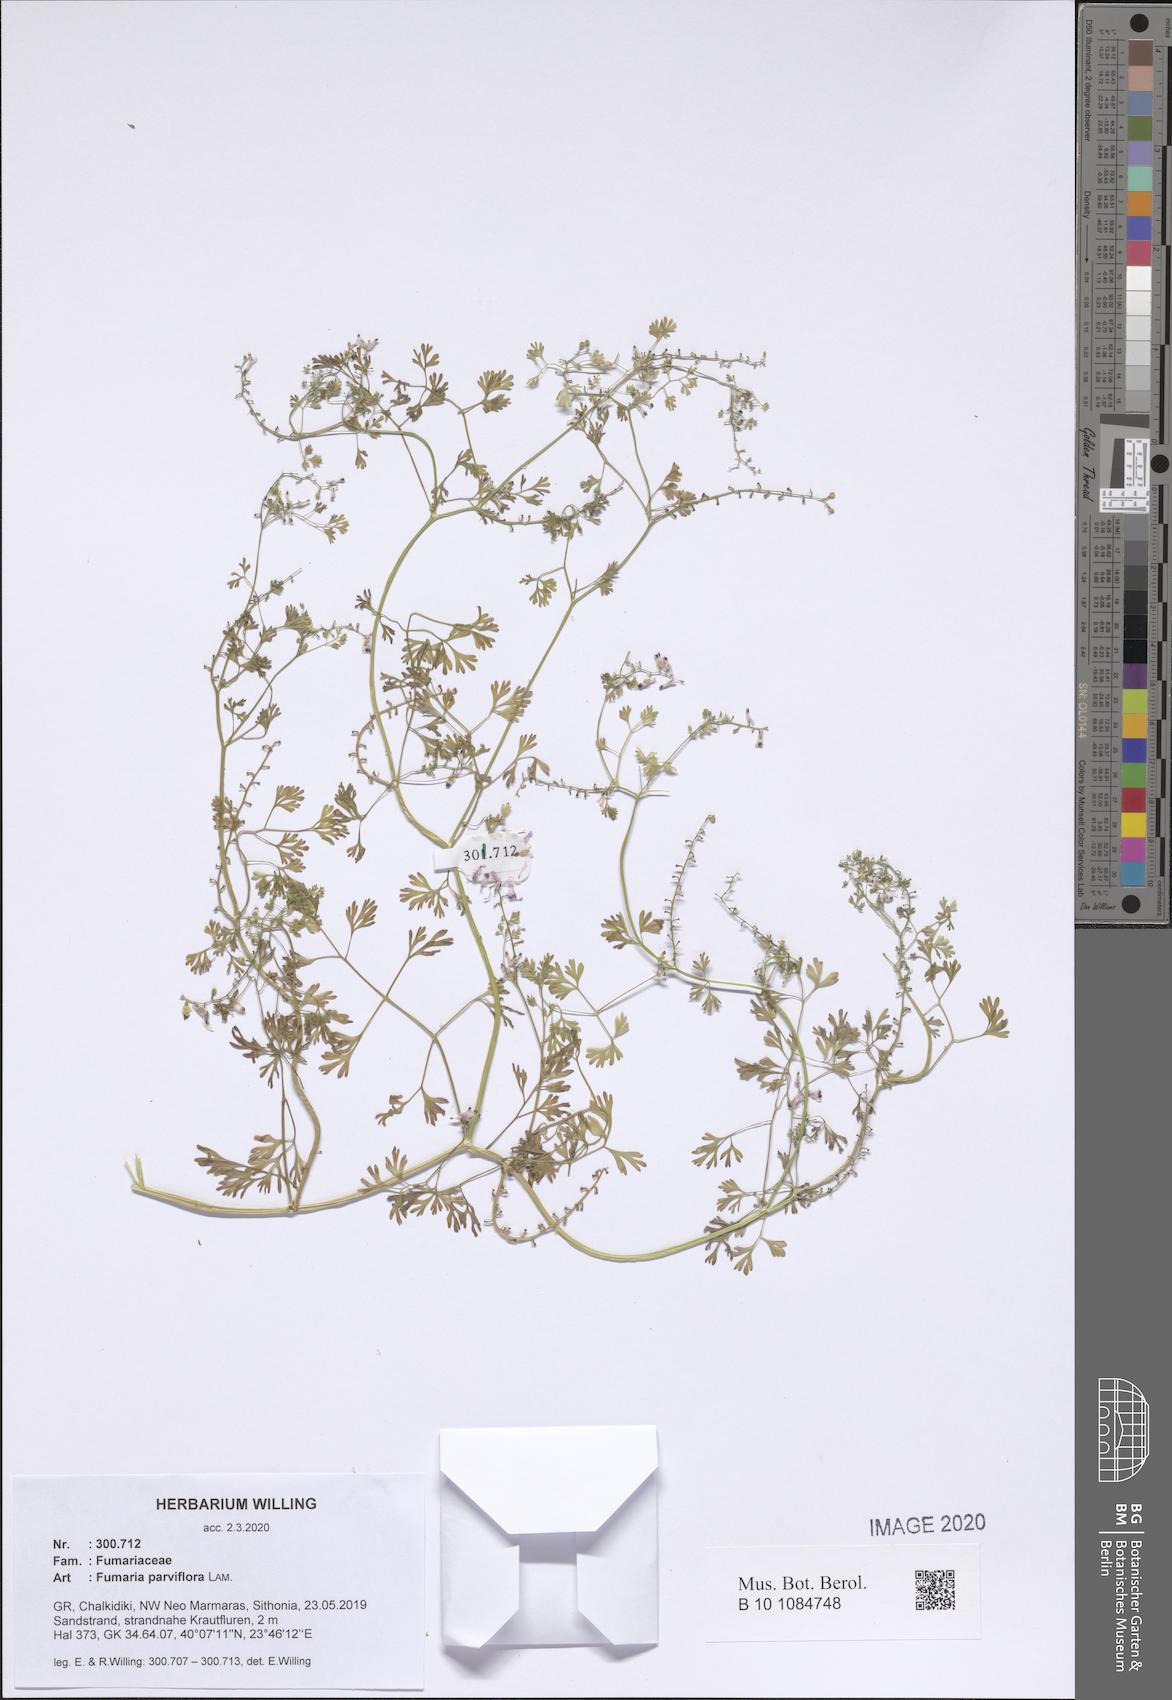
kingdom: Plantae
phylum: Tracheophyta
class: Magnoliopsida
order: Ranunculales
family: Papaveraceae
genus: Fumaria
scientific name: Fumaria parviflora
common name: Fine-leaved fumitory
